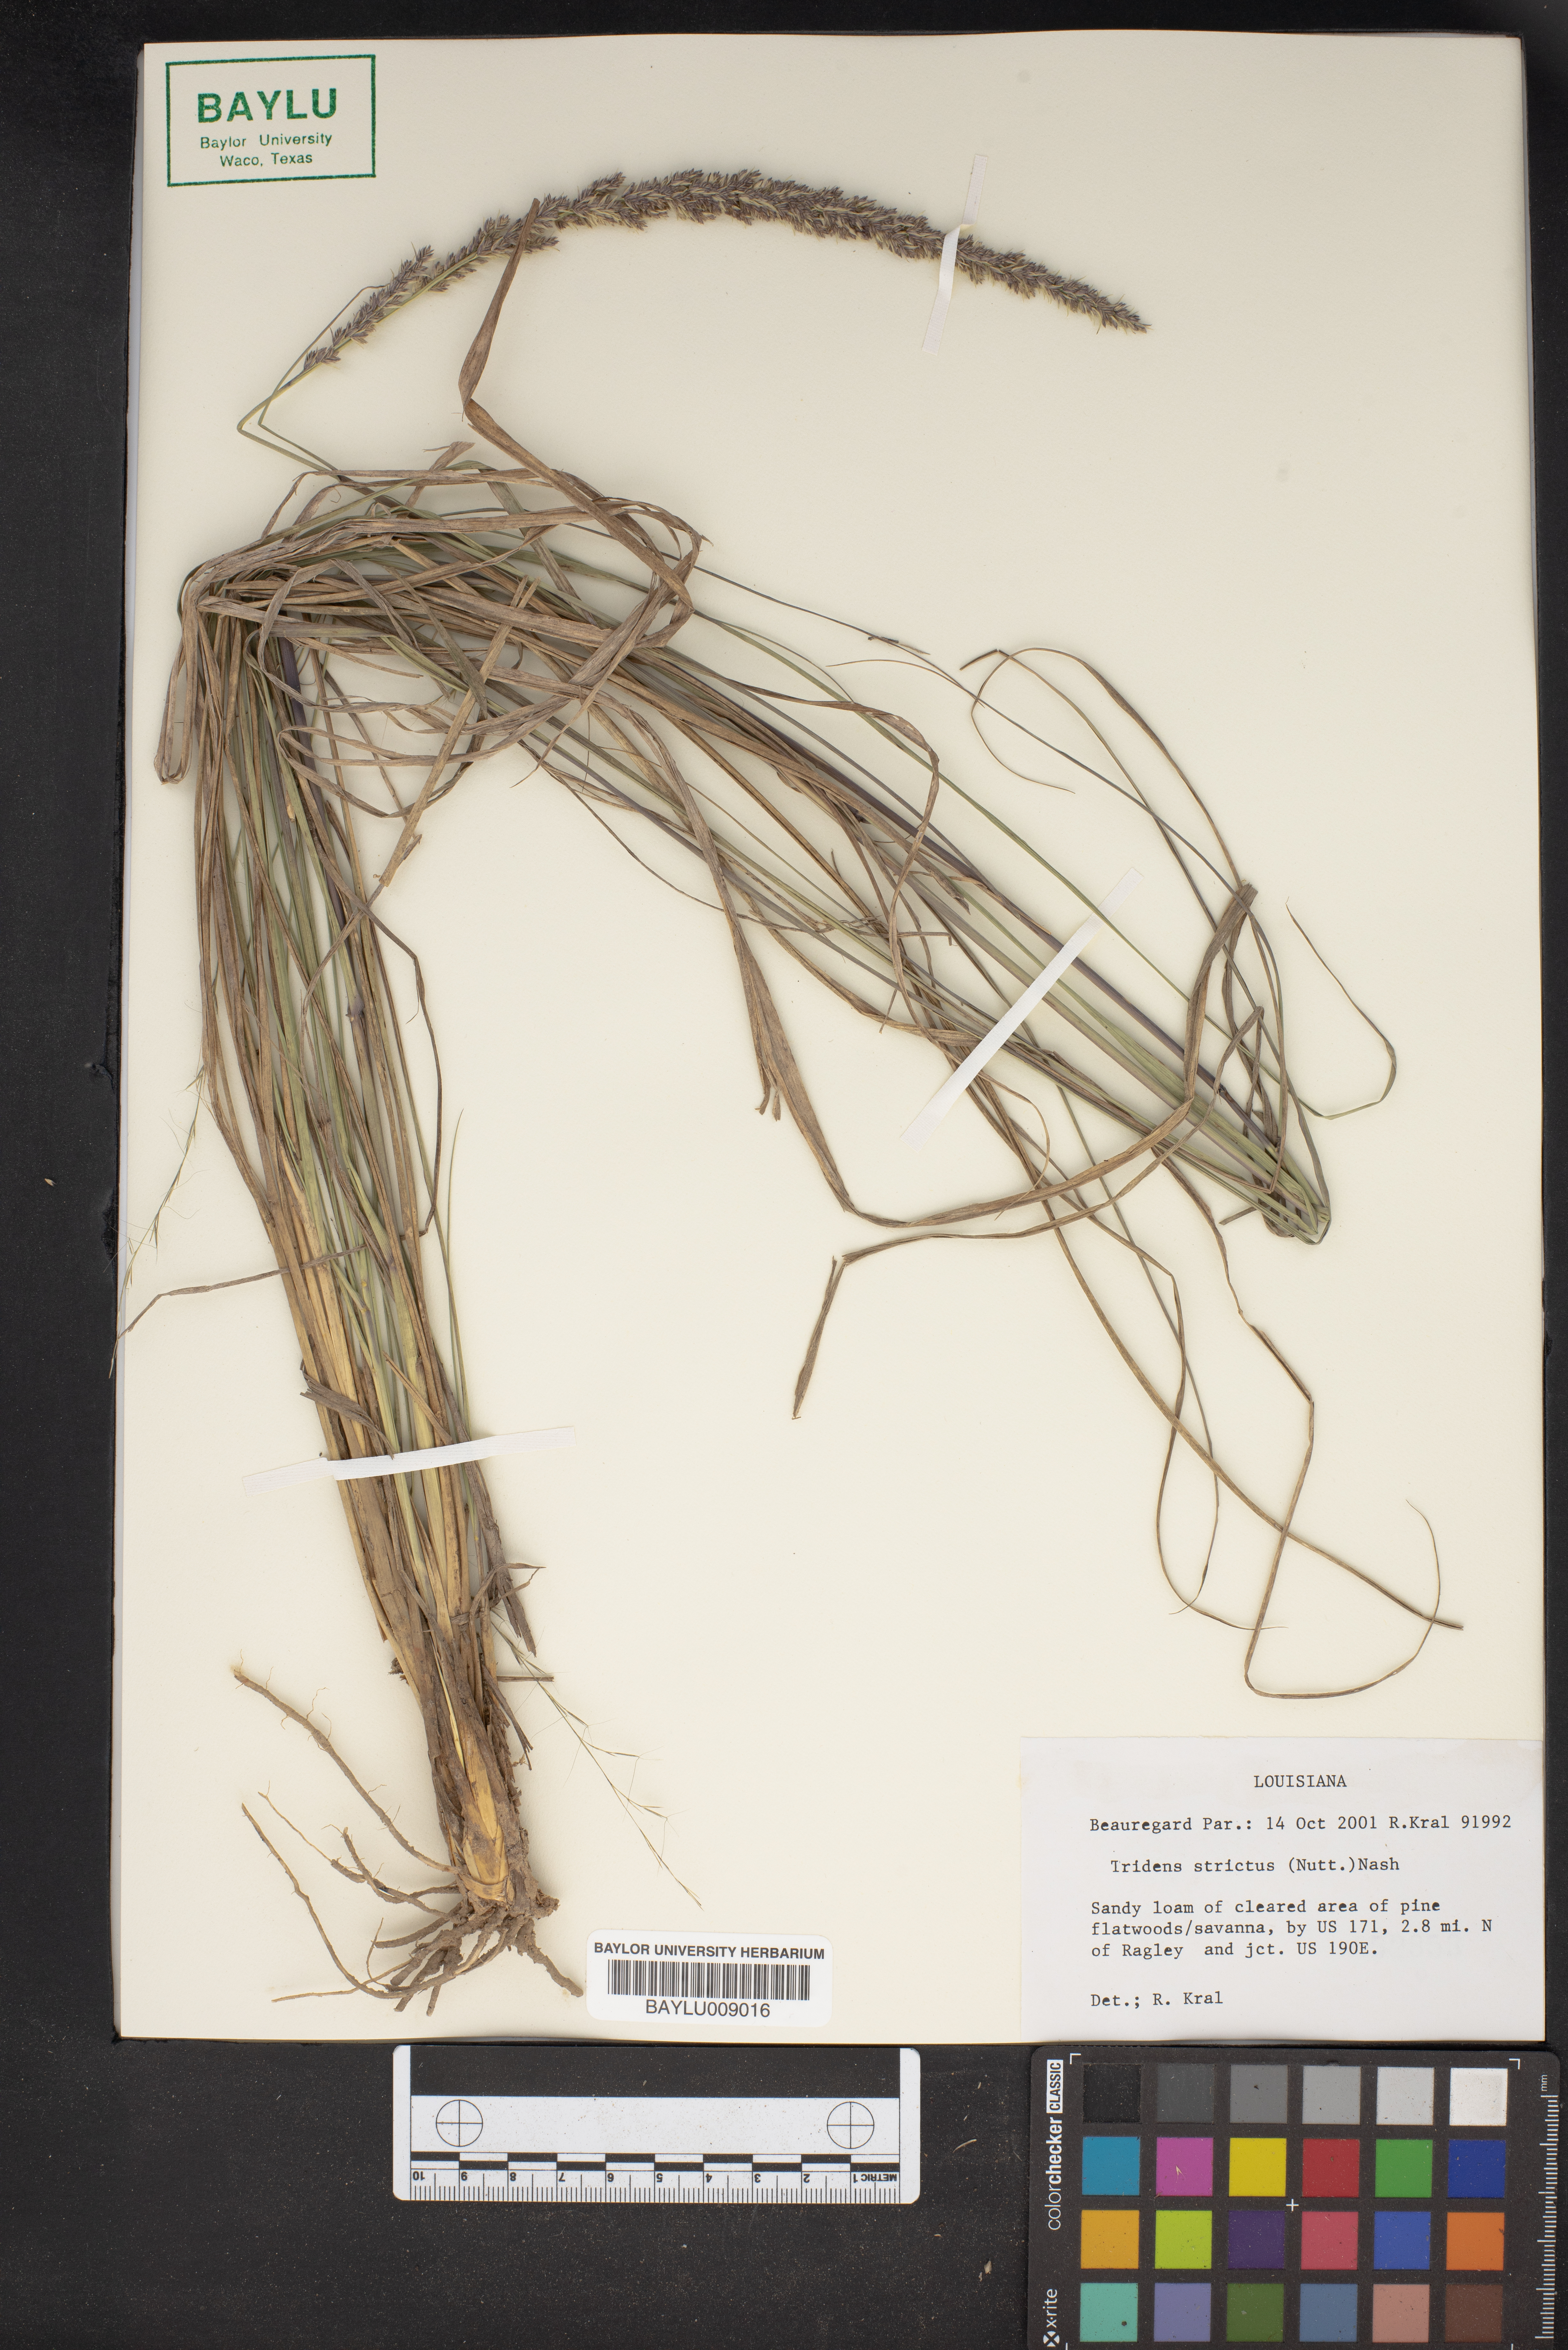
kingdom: Plantae
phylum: Tracheophyta
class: Liliopsida
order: Poales
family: Poaceae
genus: Tridens
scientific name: Tridens strictus
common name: Long-spike tridens
